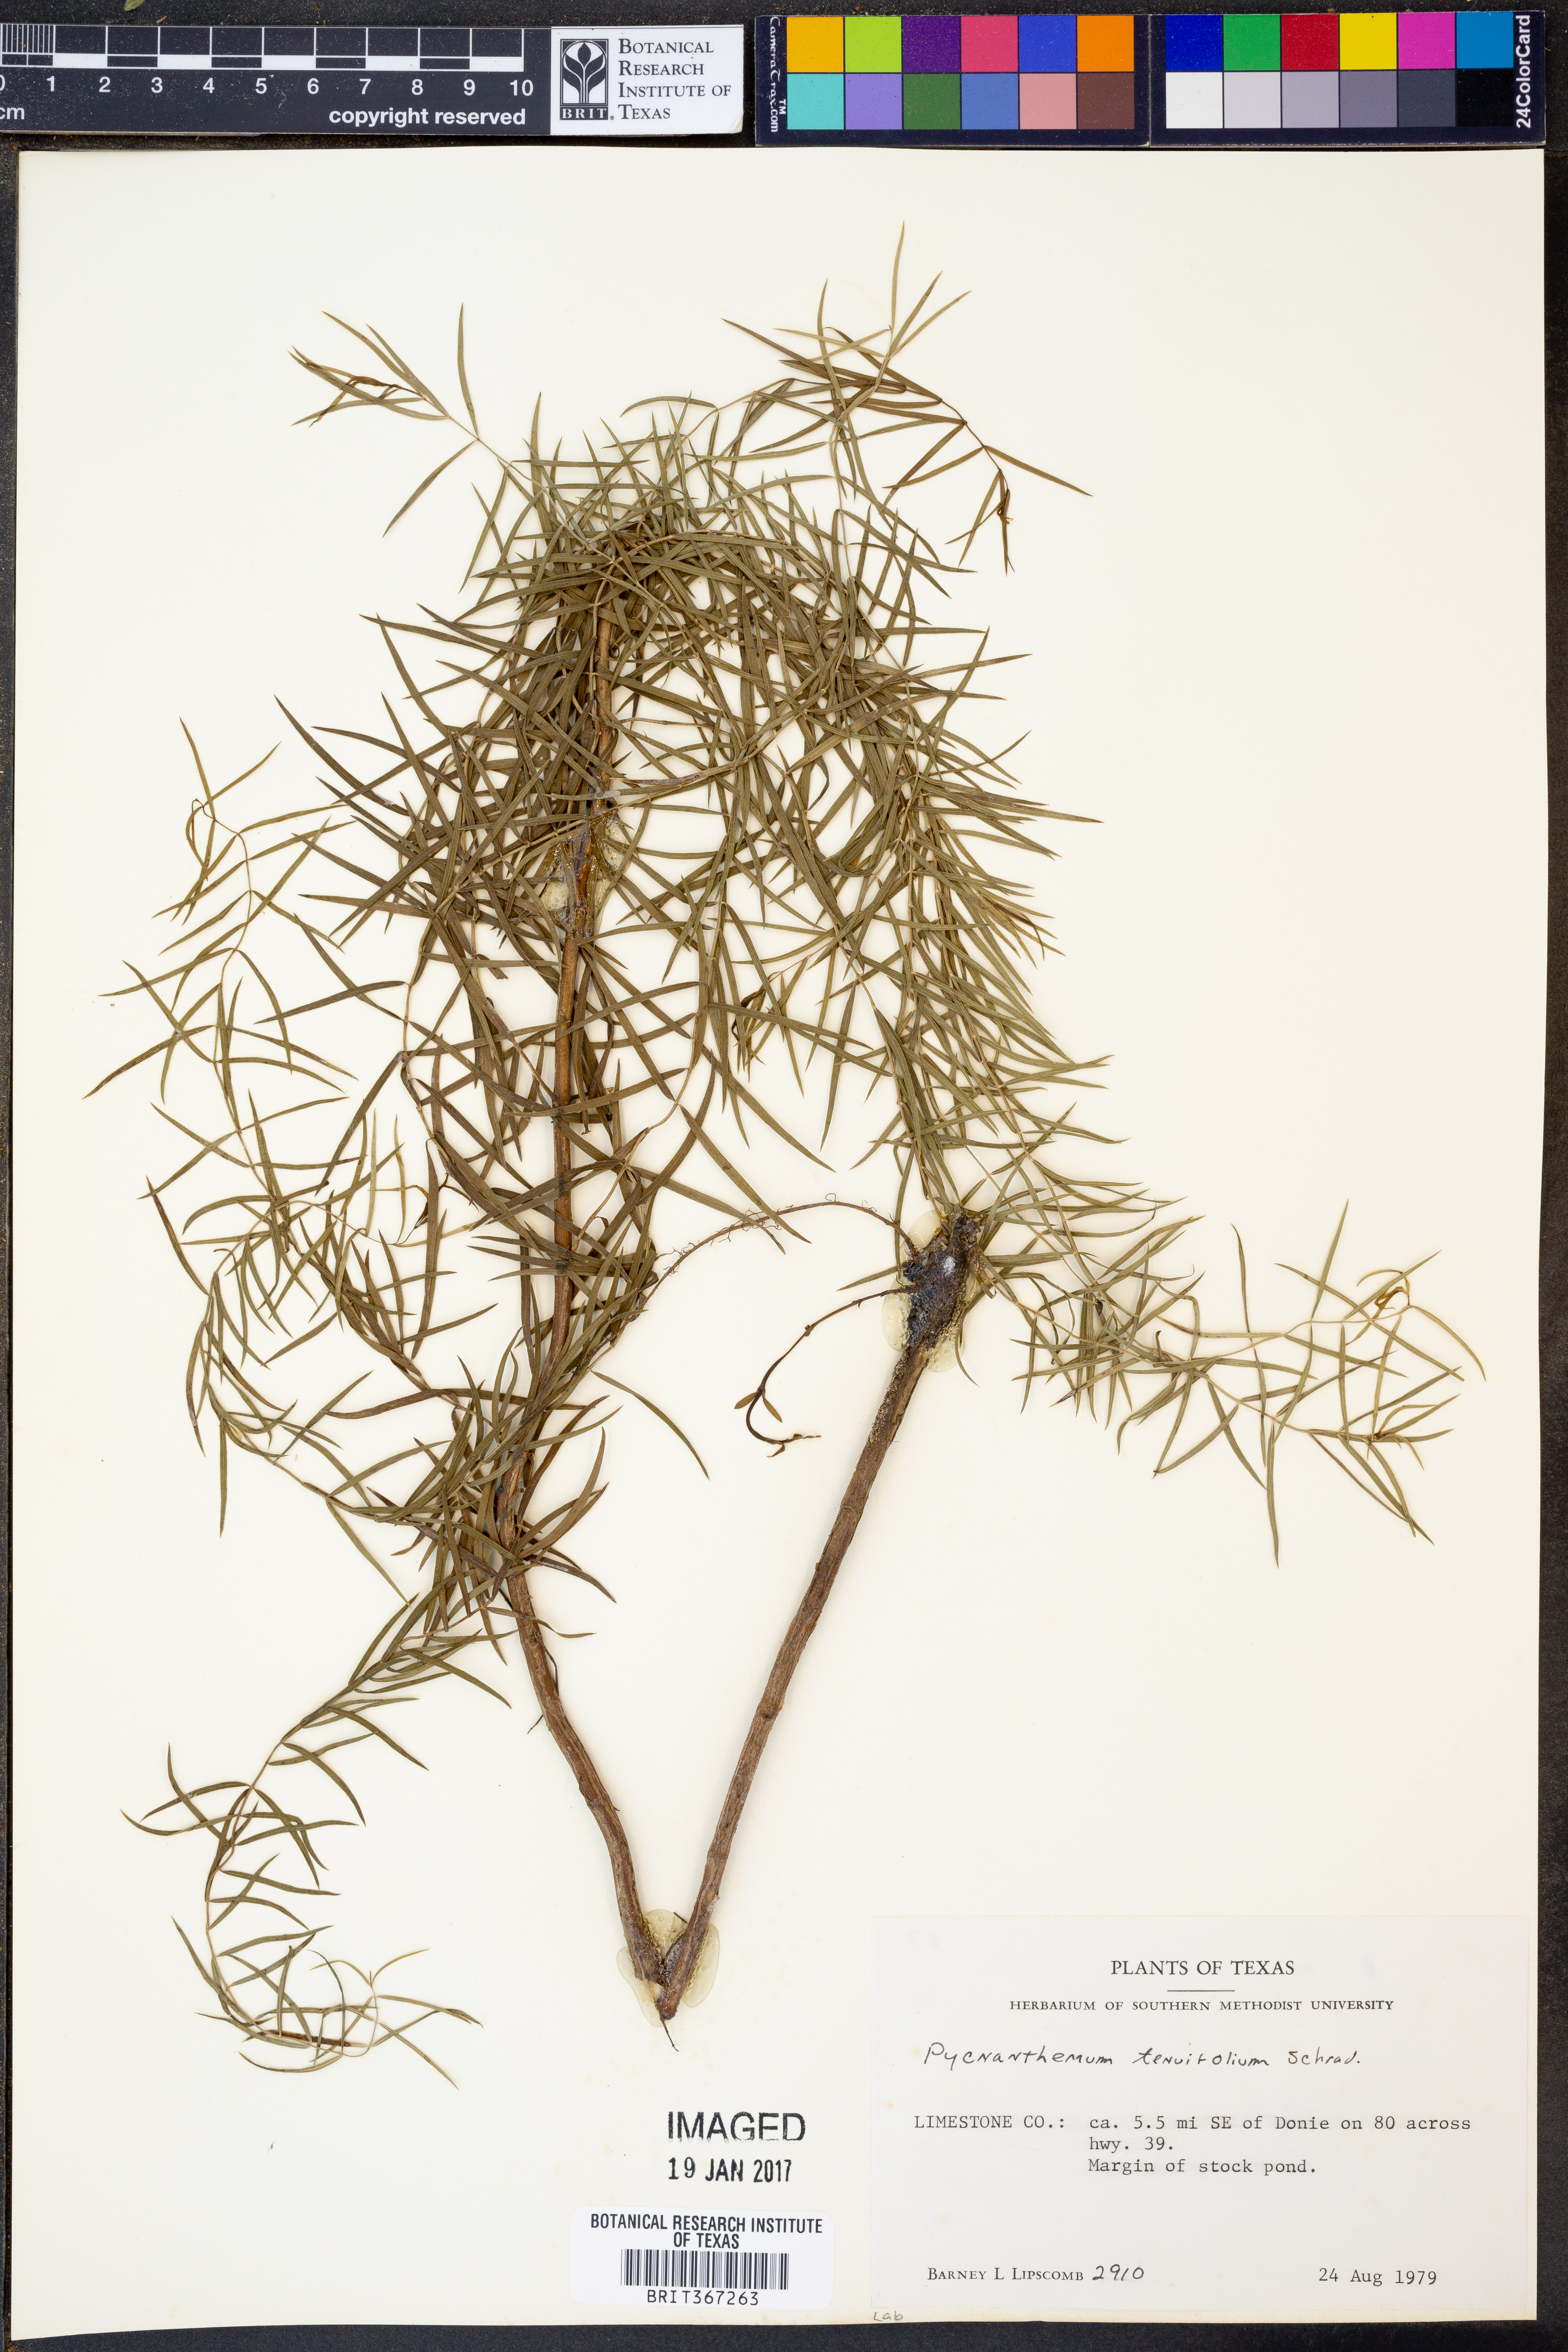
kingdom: Plantae
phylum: Tracheophyta
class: Magnoliopsida
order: Lamiales
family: Lamiaceae
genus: Pycnanthemum
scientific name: Pycnanthemum tenuifolium
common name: Narrow-leaf mountain-mint
